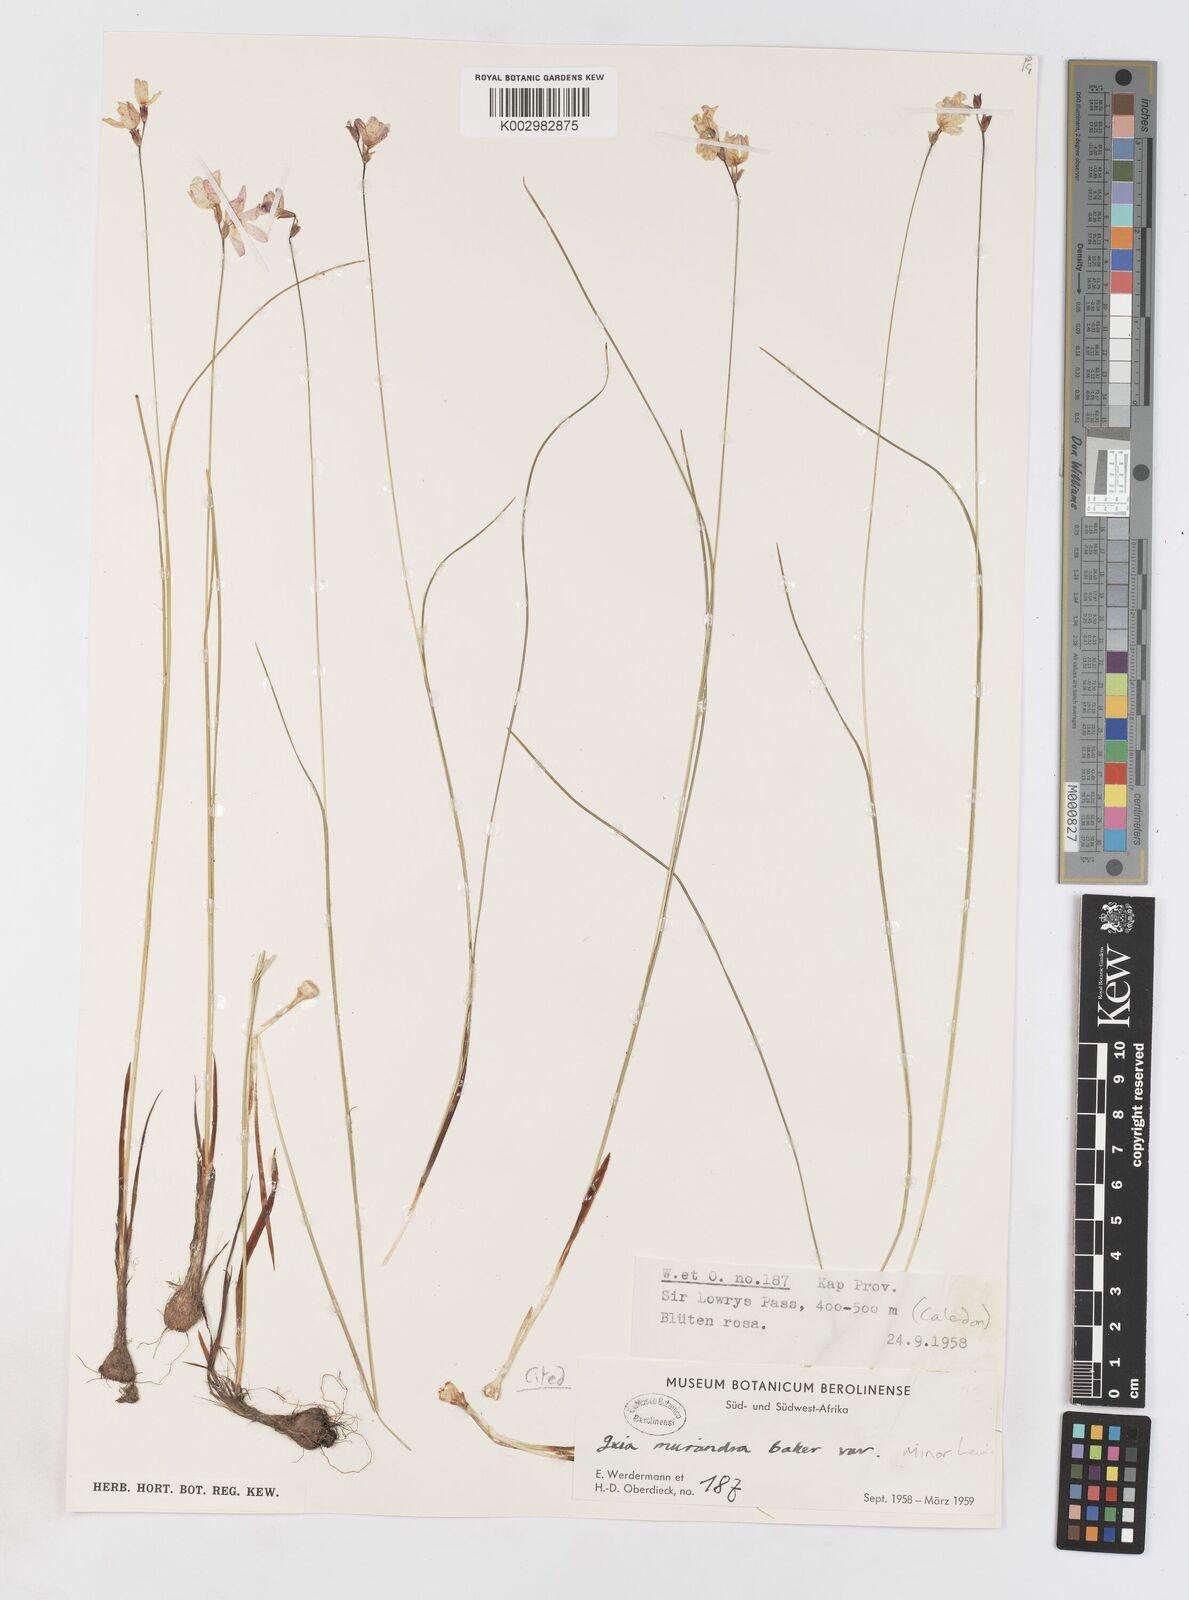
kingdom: Plantae
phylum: Tracheophyta
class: Liliopsida
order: Asparagales
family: Iridaceae
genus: Ixia
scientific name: Ixia minor
